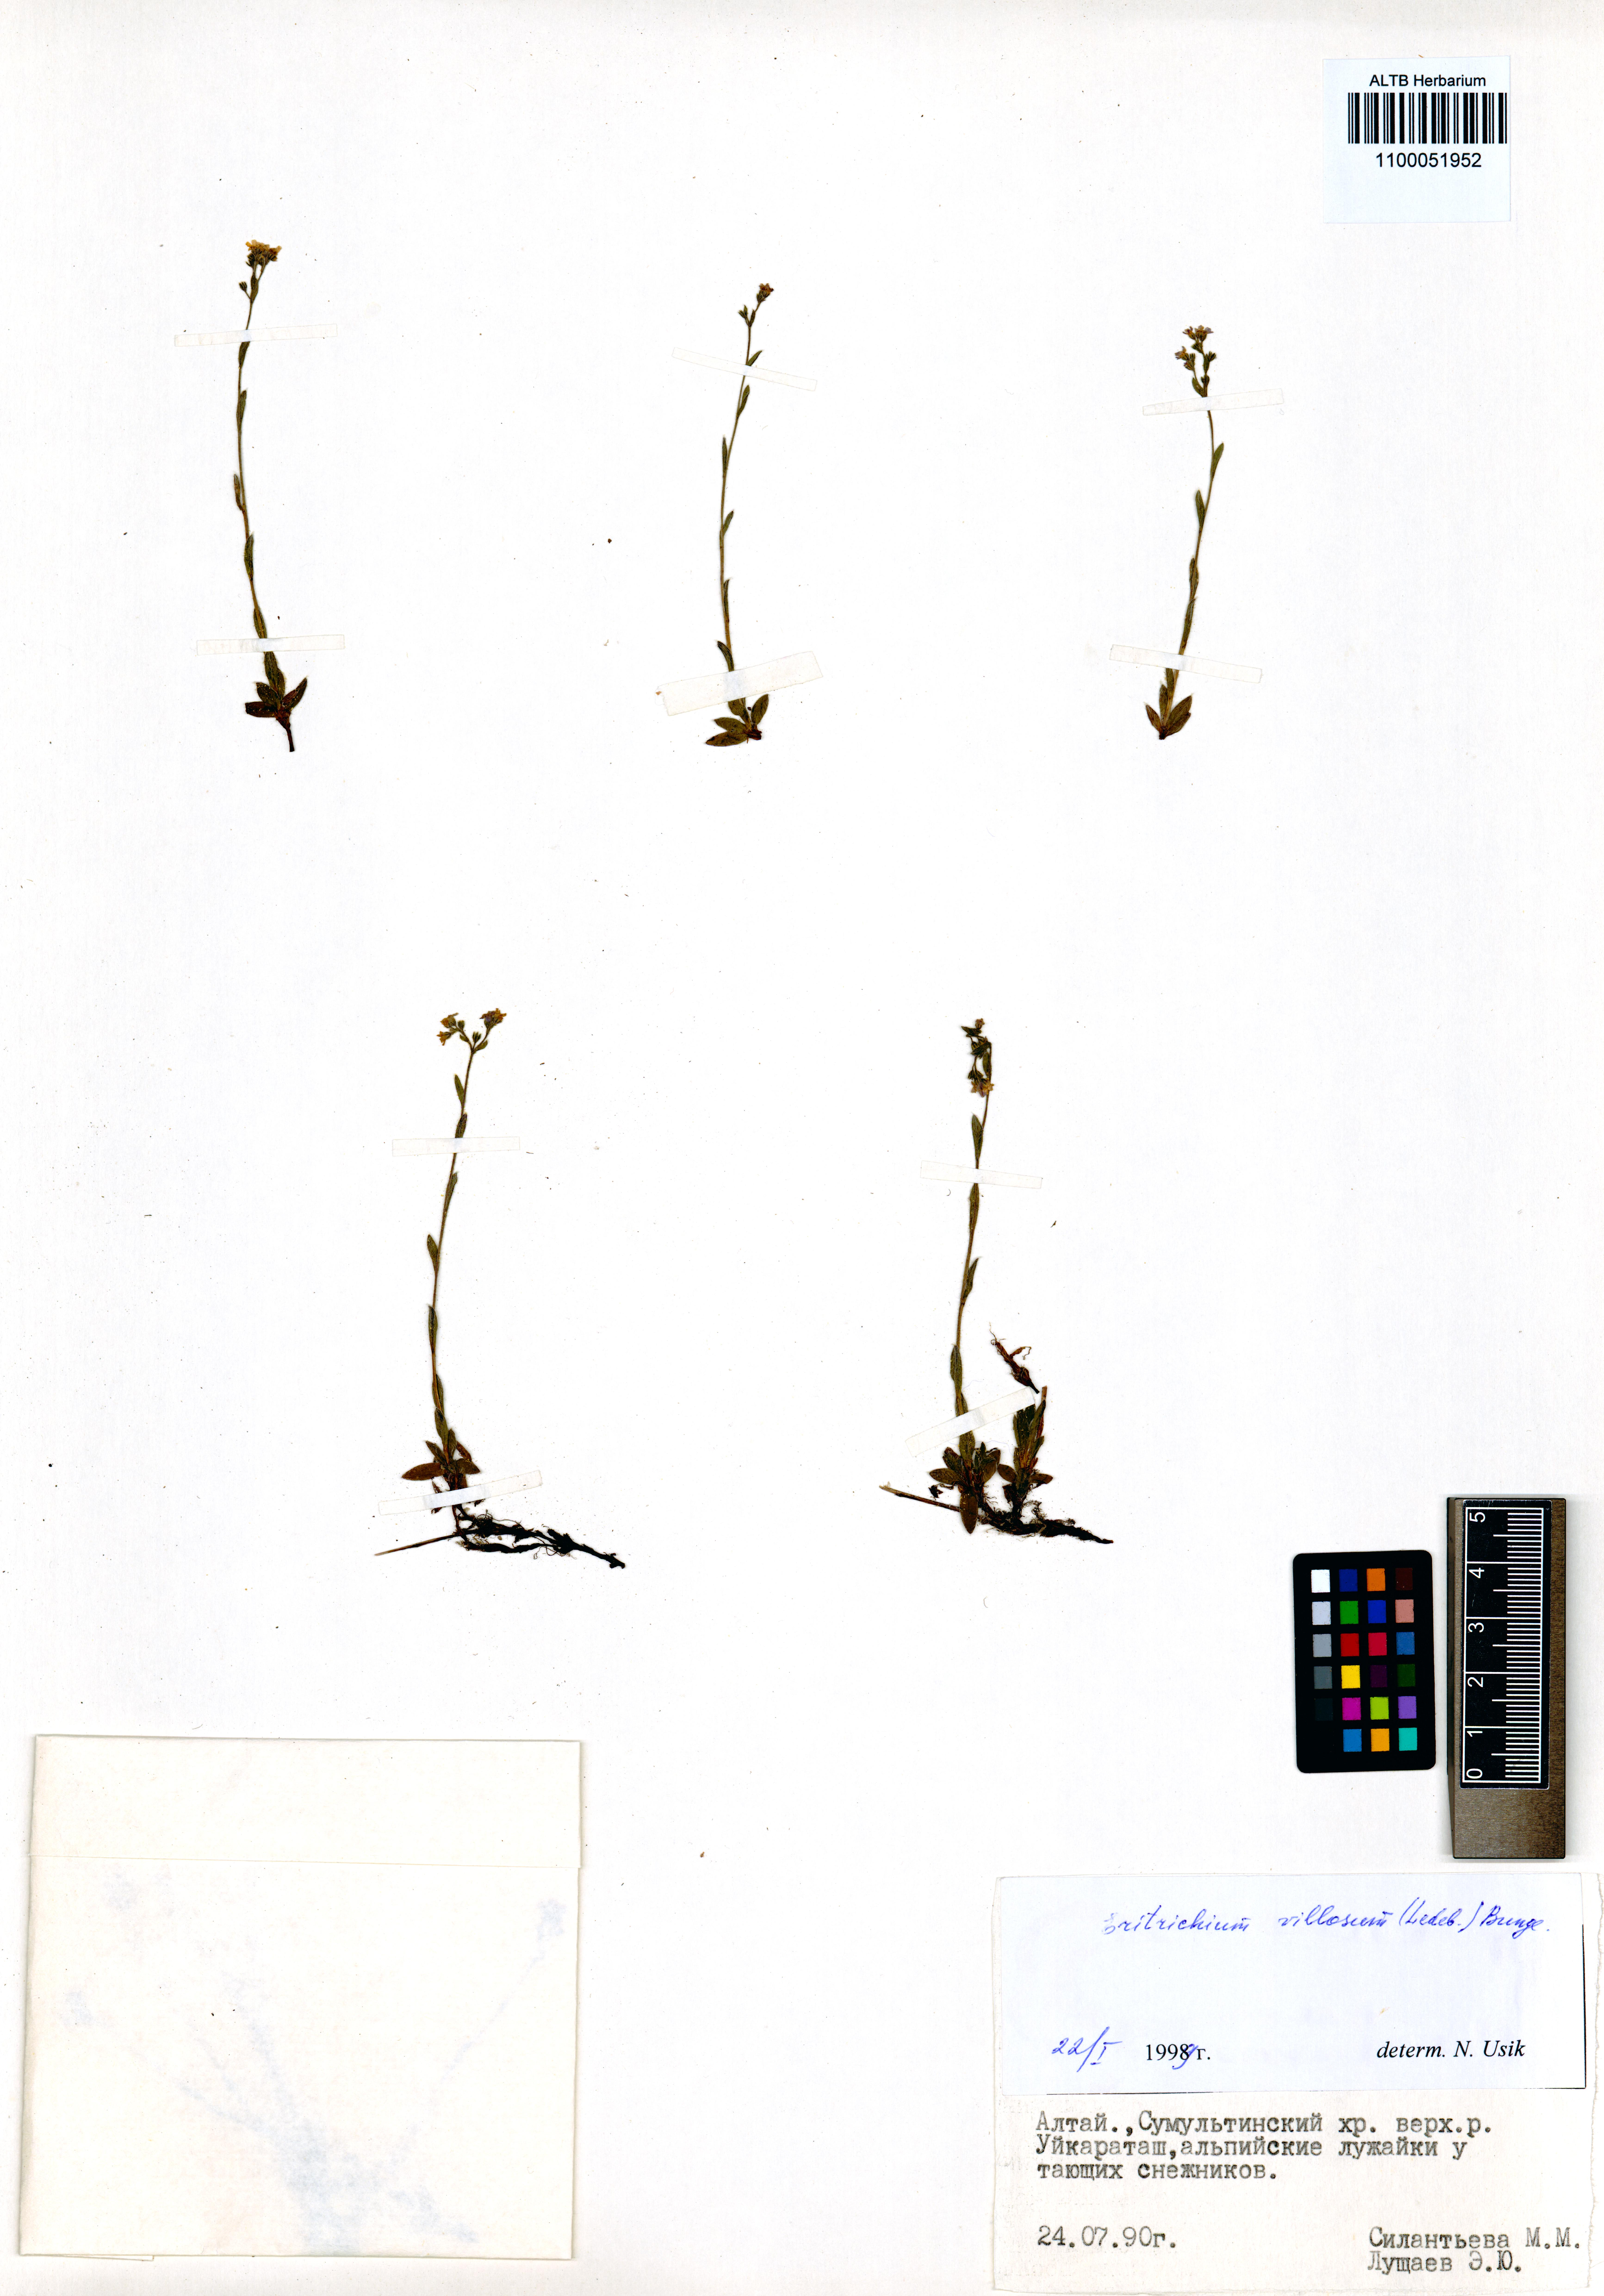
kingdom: Plantae
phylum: Tracheophyta
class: Magnoliopsida
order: Boraginales
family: Boraginaceae
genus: Eritrichium
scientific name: Eritrichium villosum
